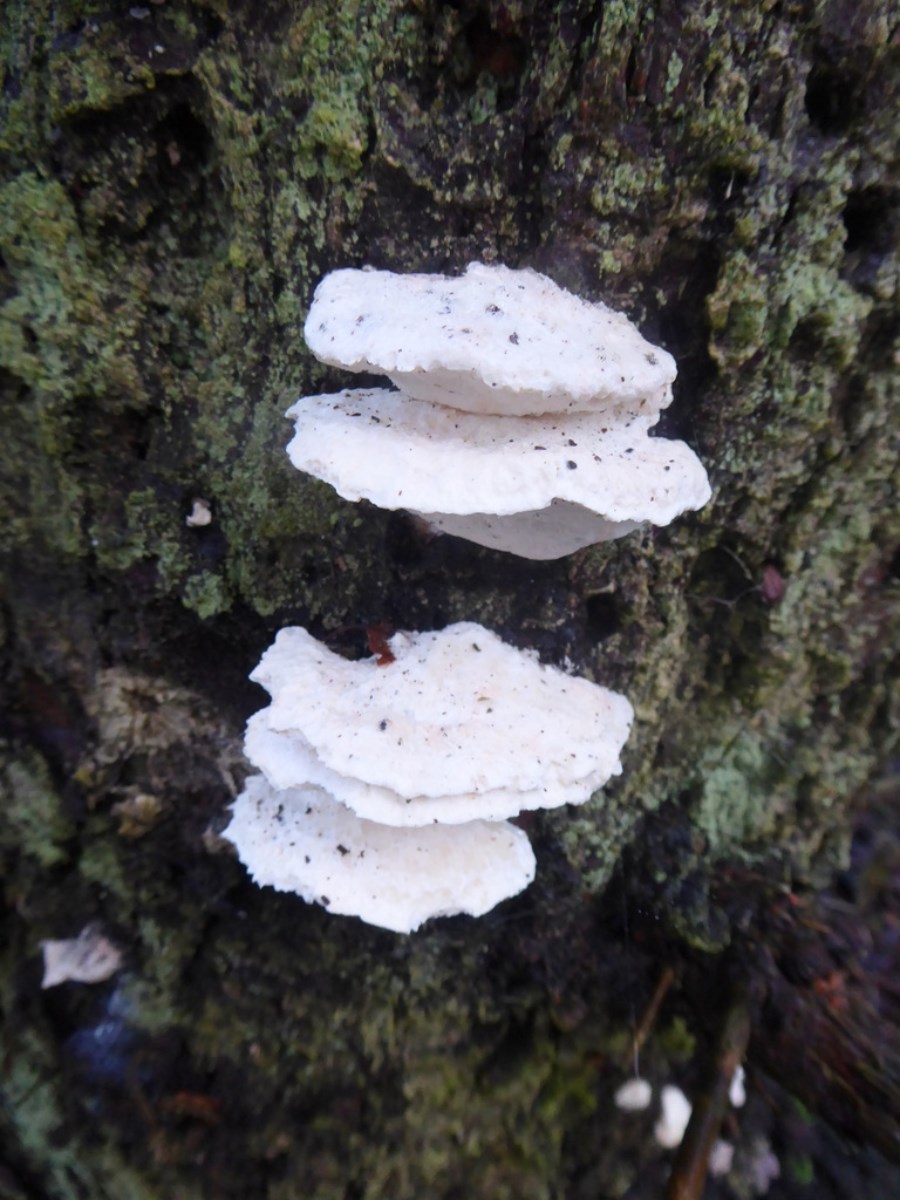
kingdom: Fungi
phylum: Basidiomycota
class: Agaricomycetes
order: Polyporales
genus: Amaropostia
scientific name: Amaropostia stiptica
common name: bitter kødporesvamp
